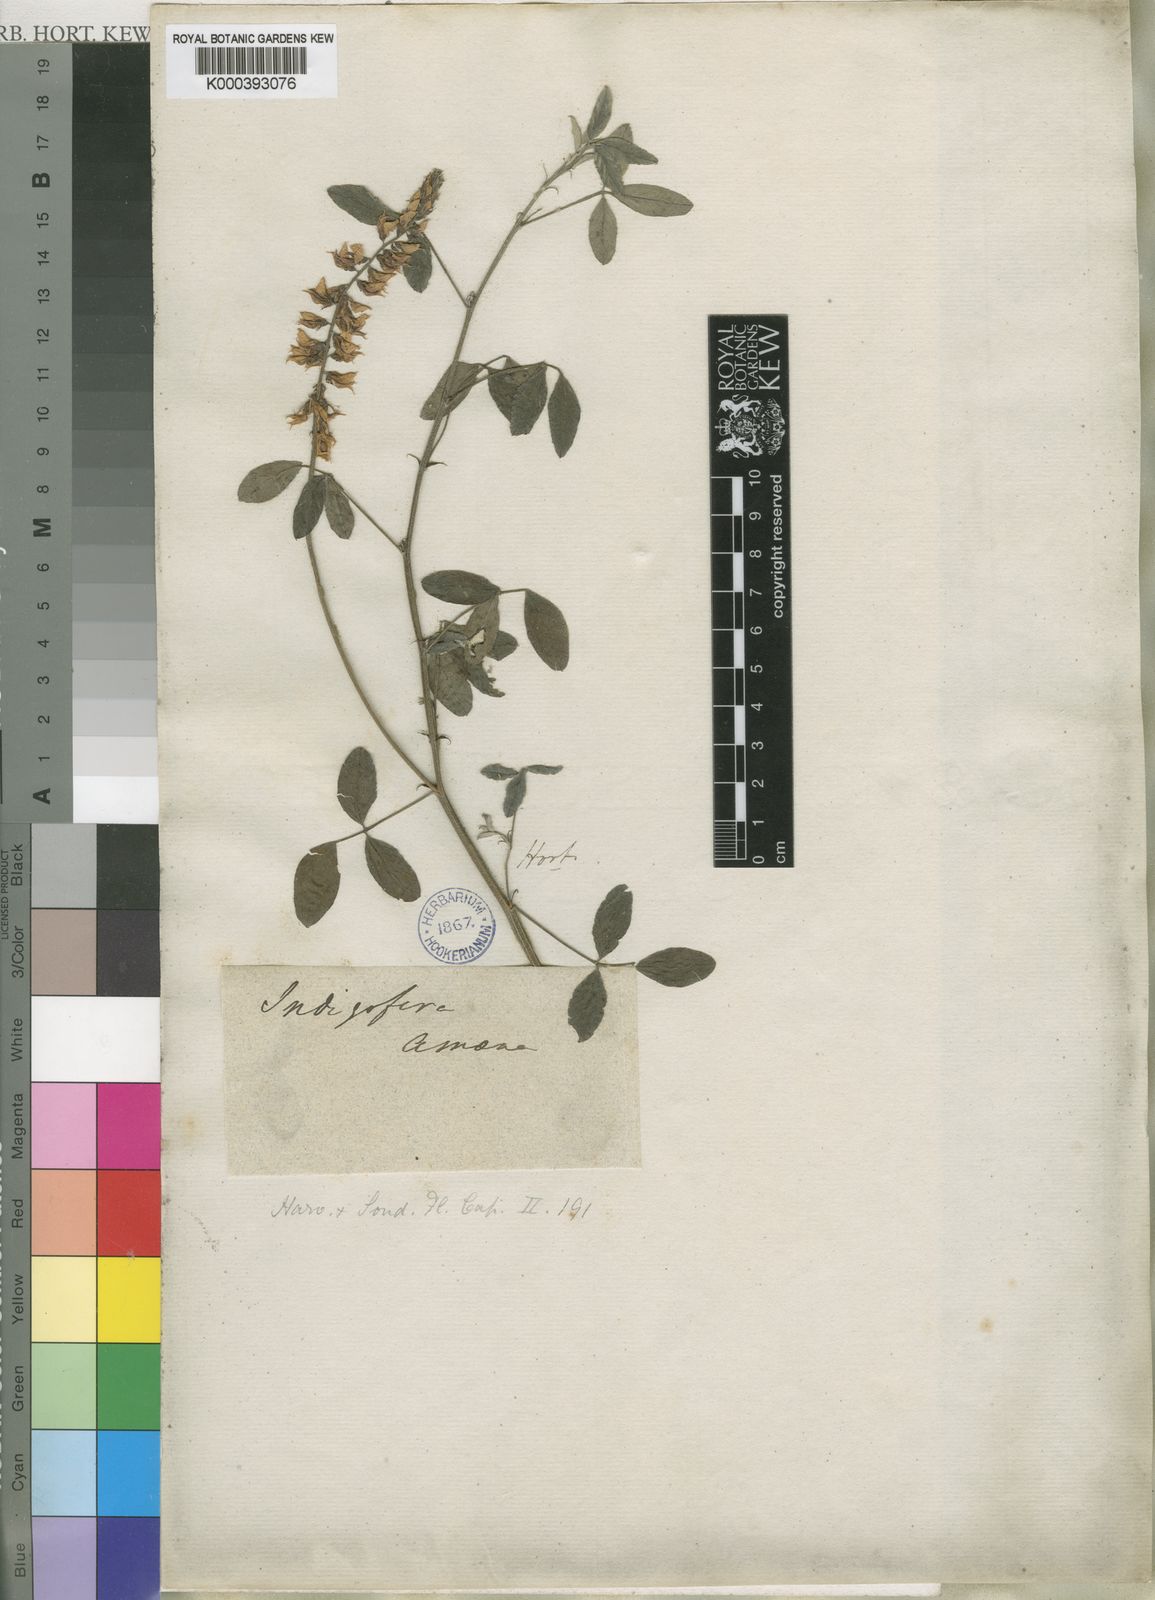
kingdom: Plantae
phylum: Tracheophyta
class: Magnoliopsida
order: Fabales
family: Fabaceae
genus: Indigofera
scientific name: Indigofera
